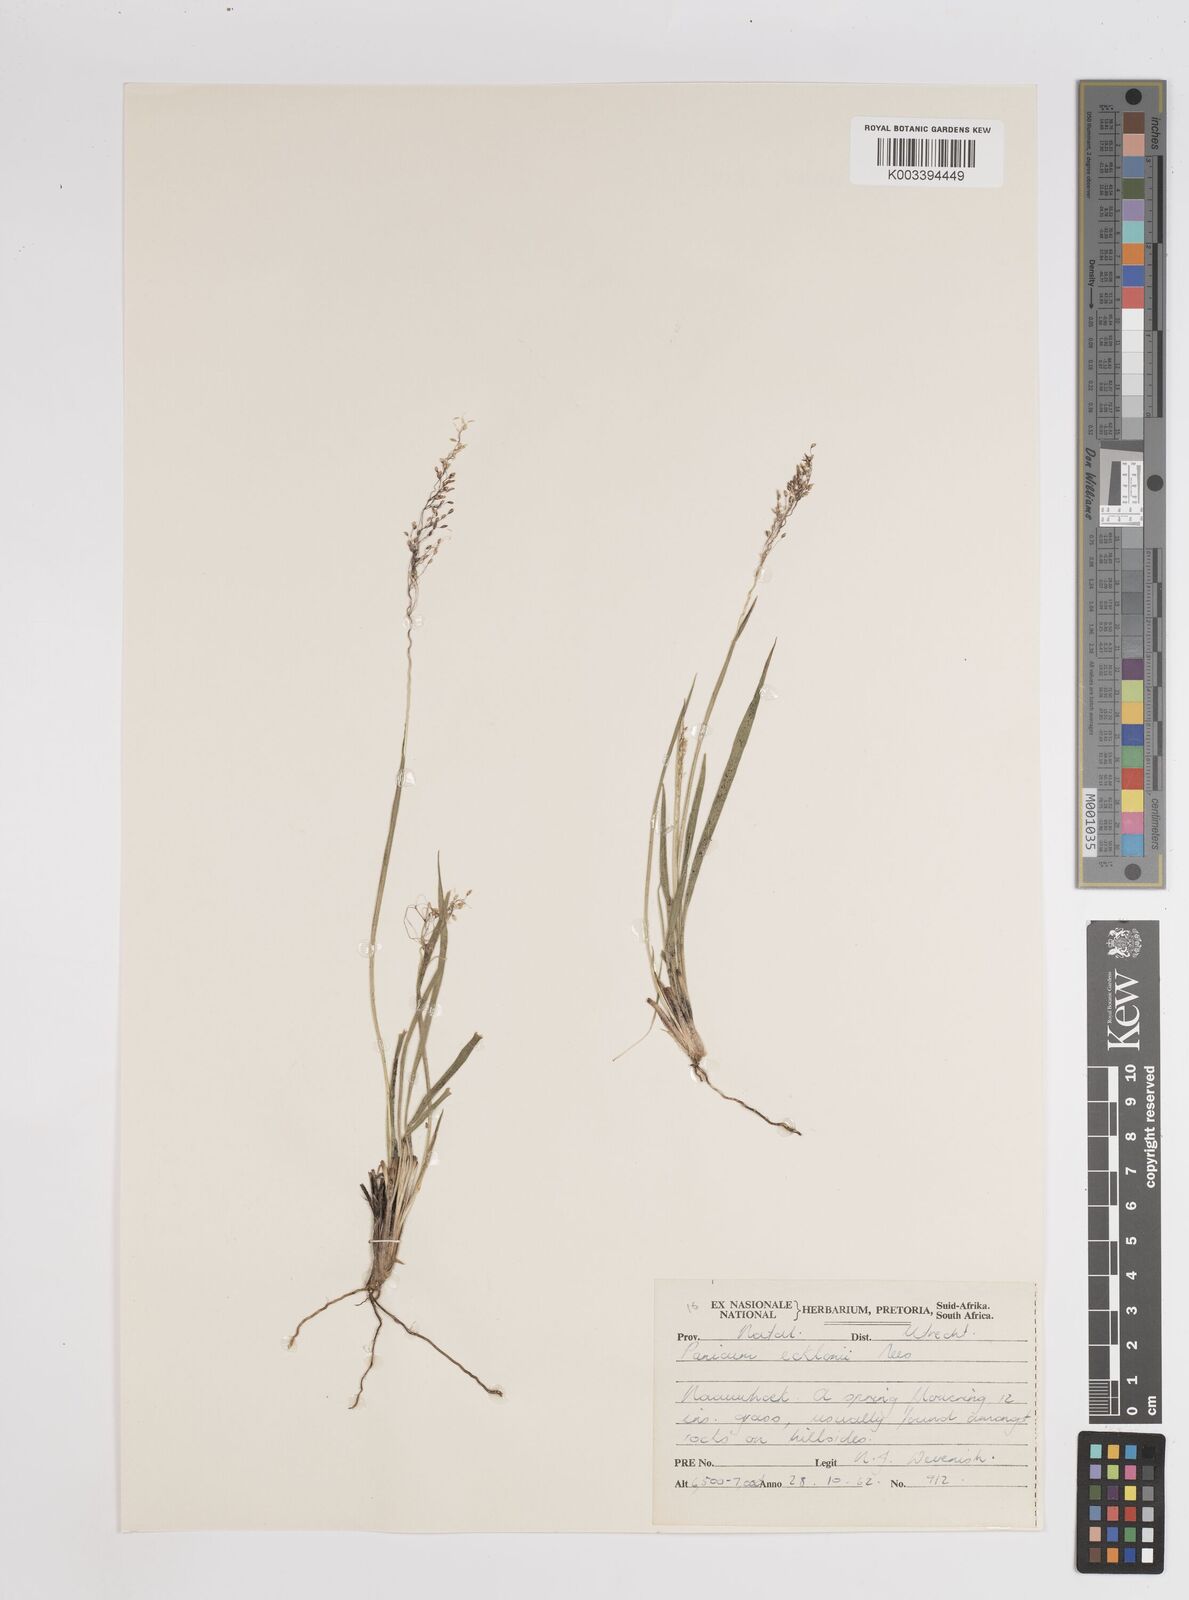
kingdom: Plantae
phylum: Tracheophyta
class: Liliopsida
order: Poales
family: Poaceae
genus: Adenochloa
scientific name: Adenochloa pectinella
